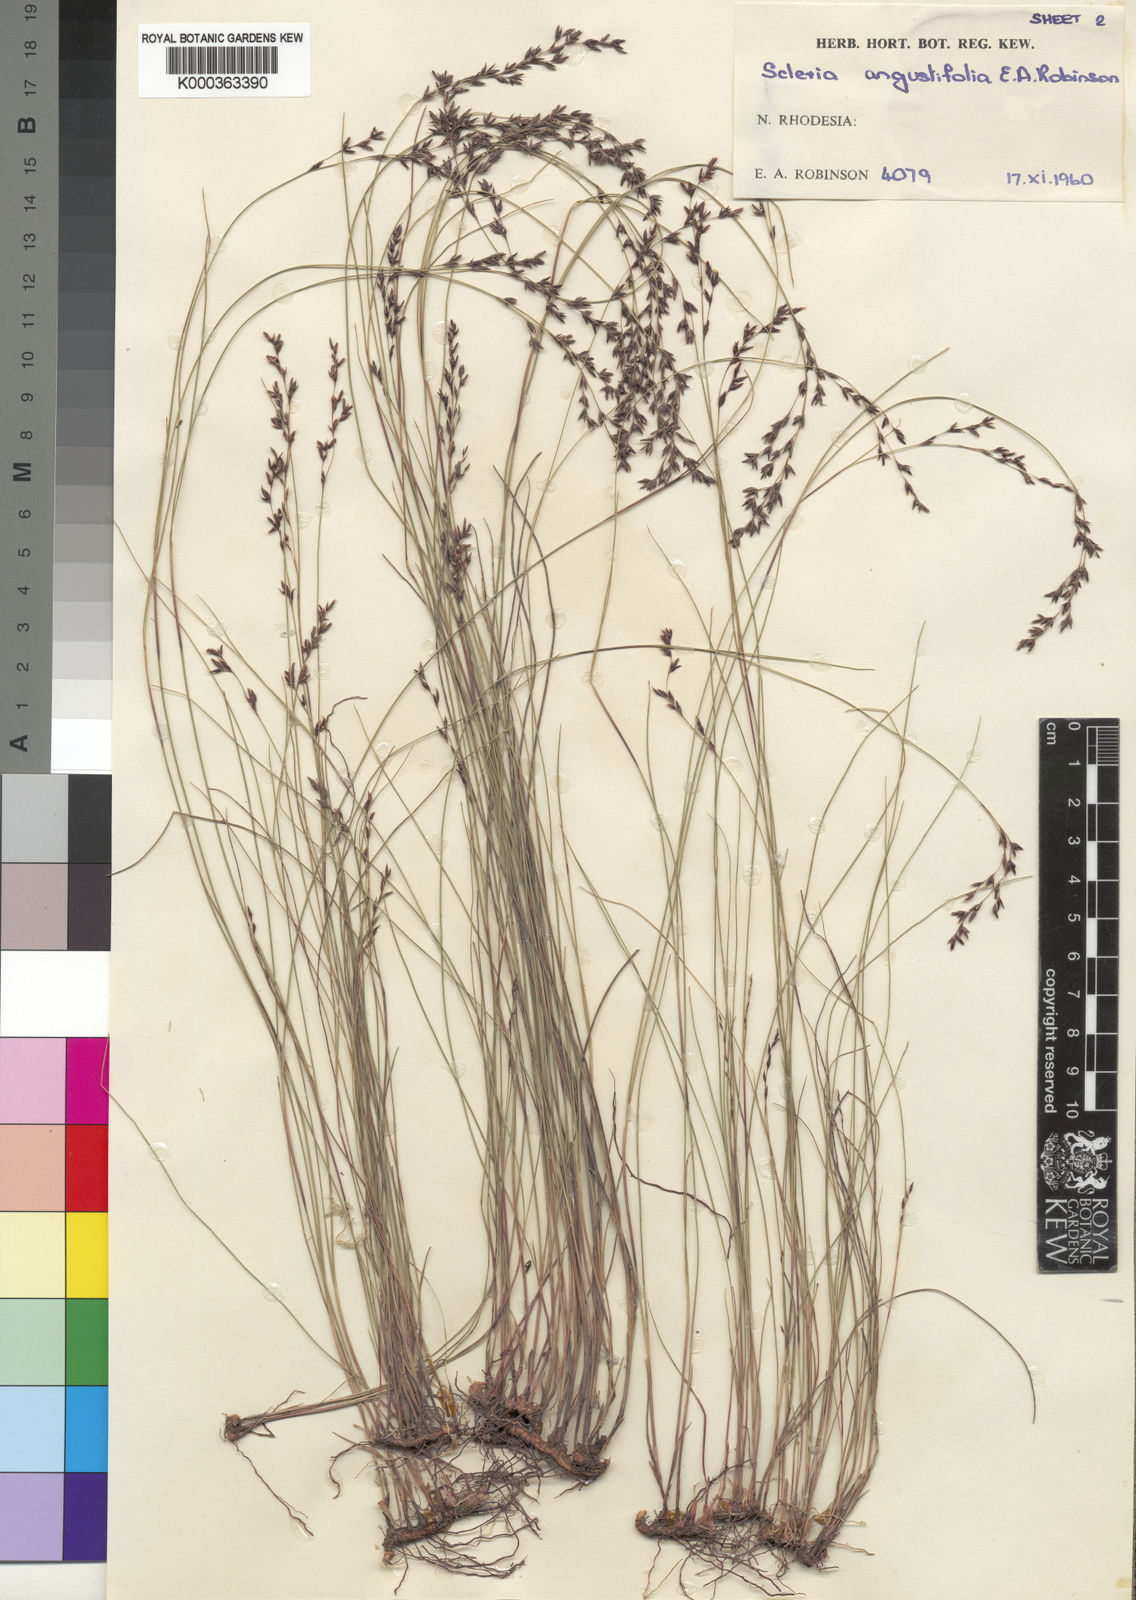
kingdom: Plantae
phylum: Tracheophyta
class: Liliopsida
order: Poales
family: Cyperaceae
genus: Scleria
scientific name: Scleria angustifolia
